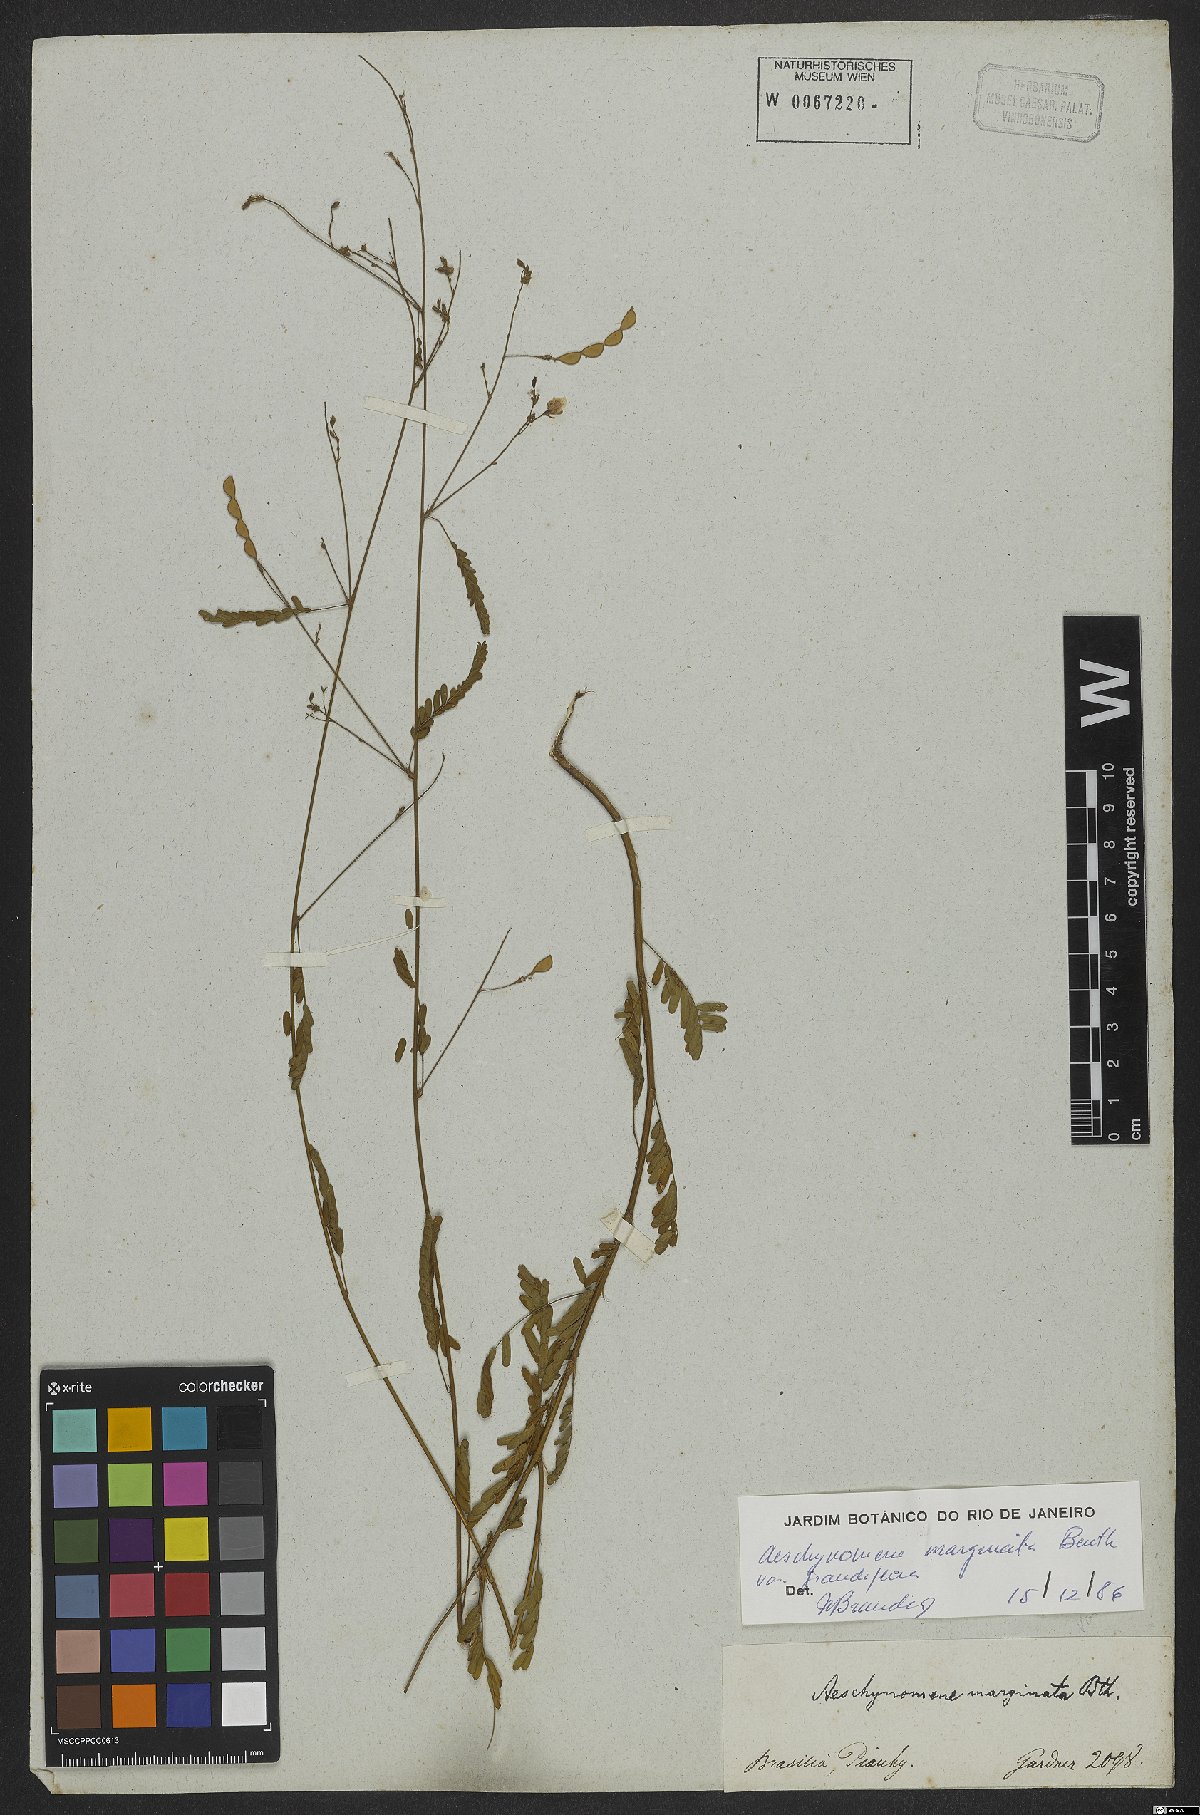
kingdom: Plantae
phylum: Tracheophyta
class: Magnoliopsida
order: Fabales
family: Fabaceae
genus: Ctenodon
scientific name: Ctenodon marginatus
